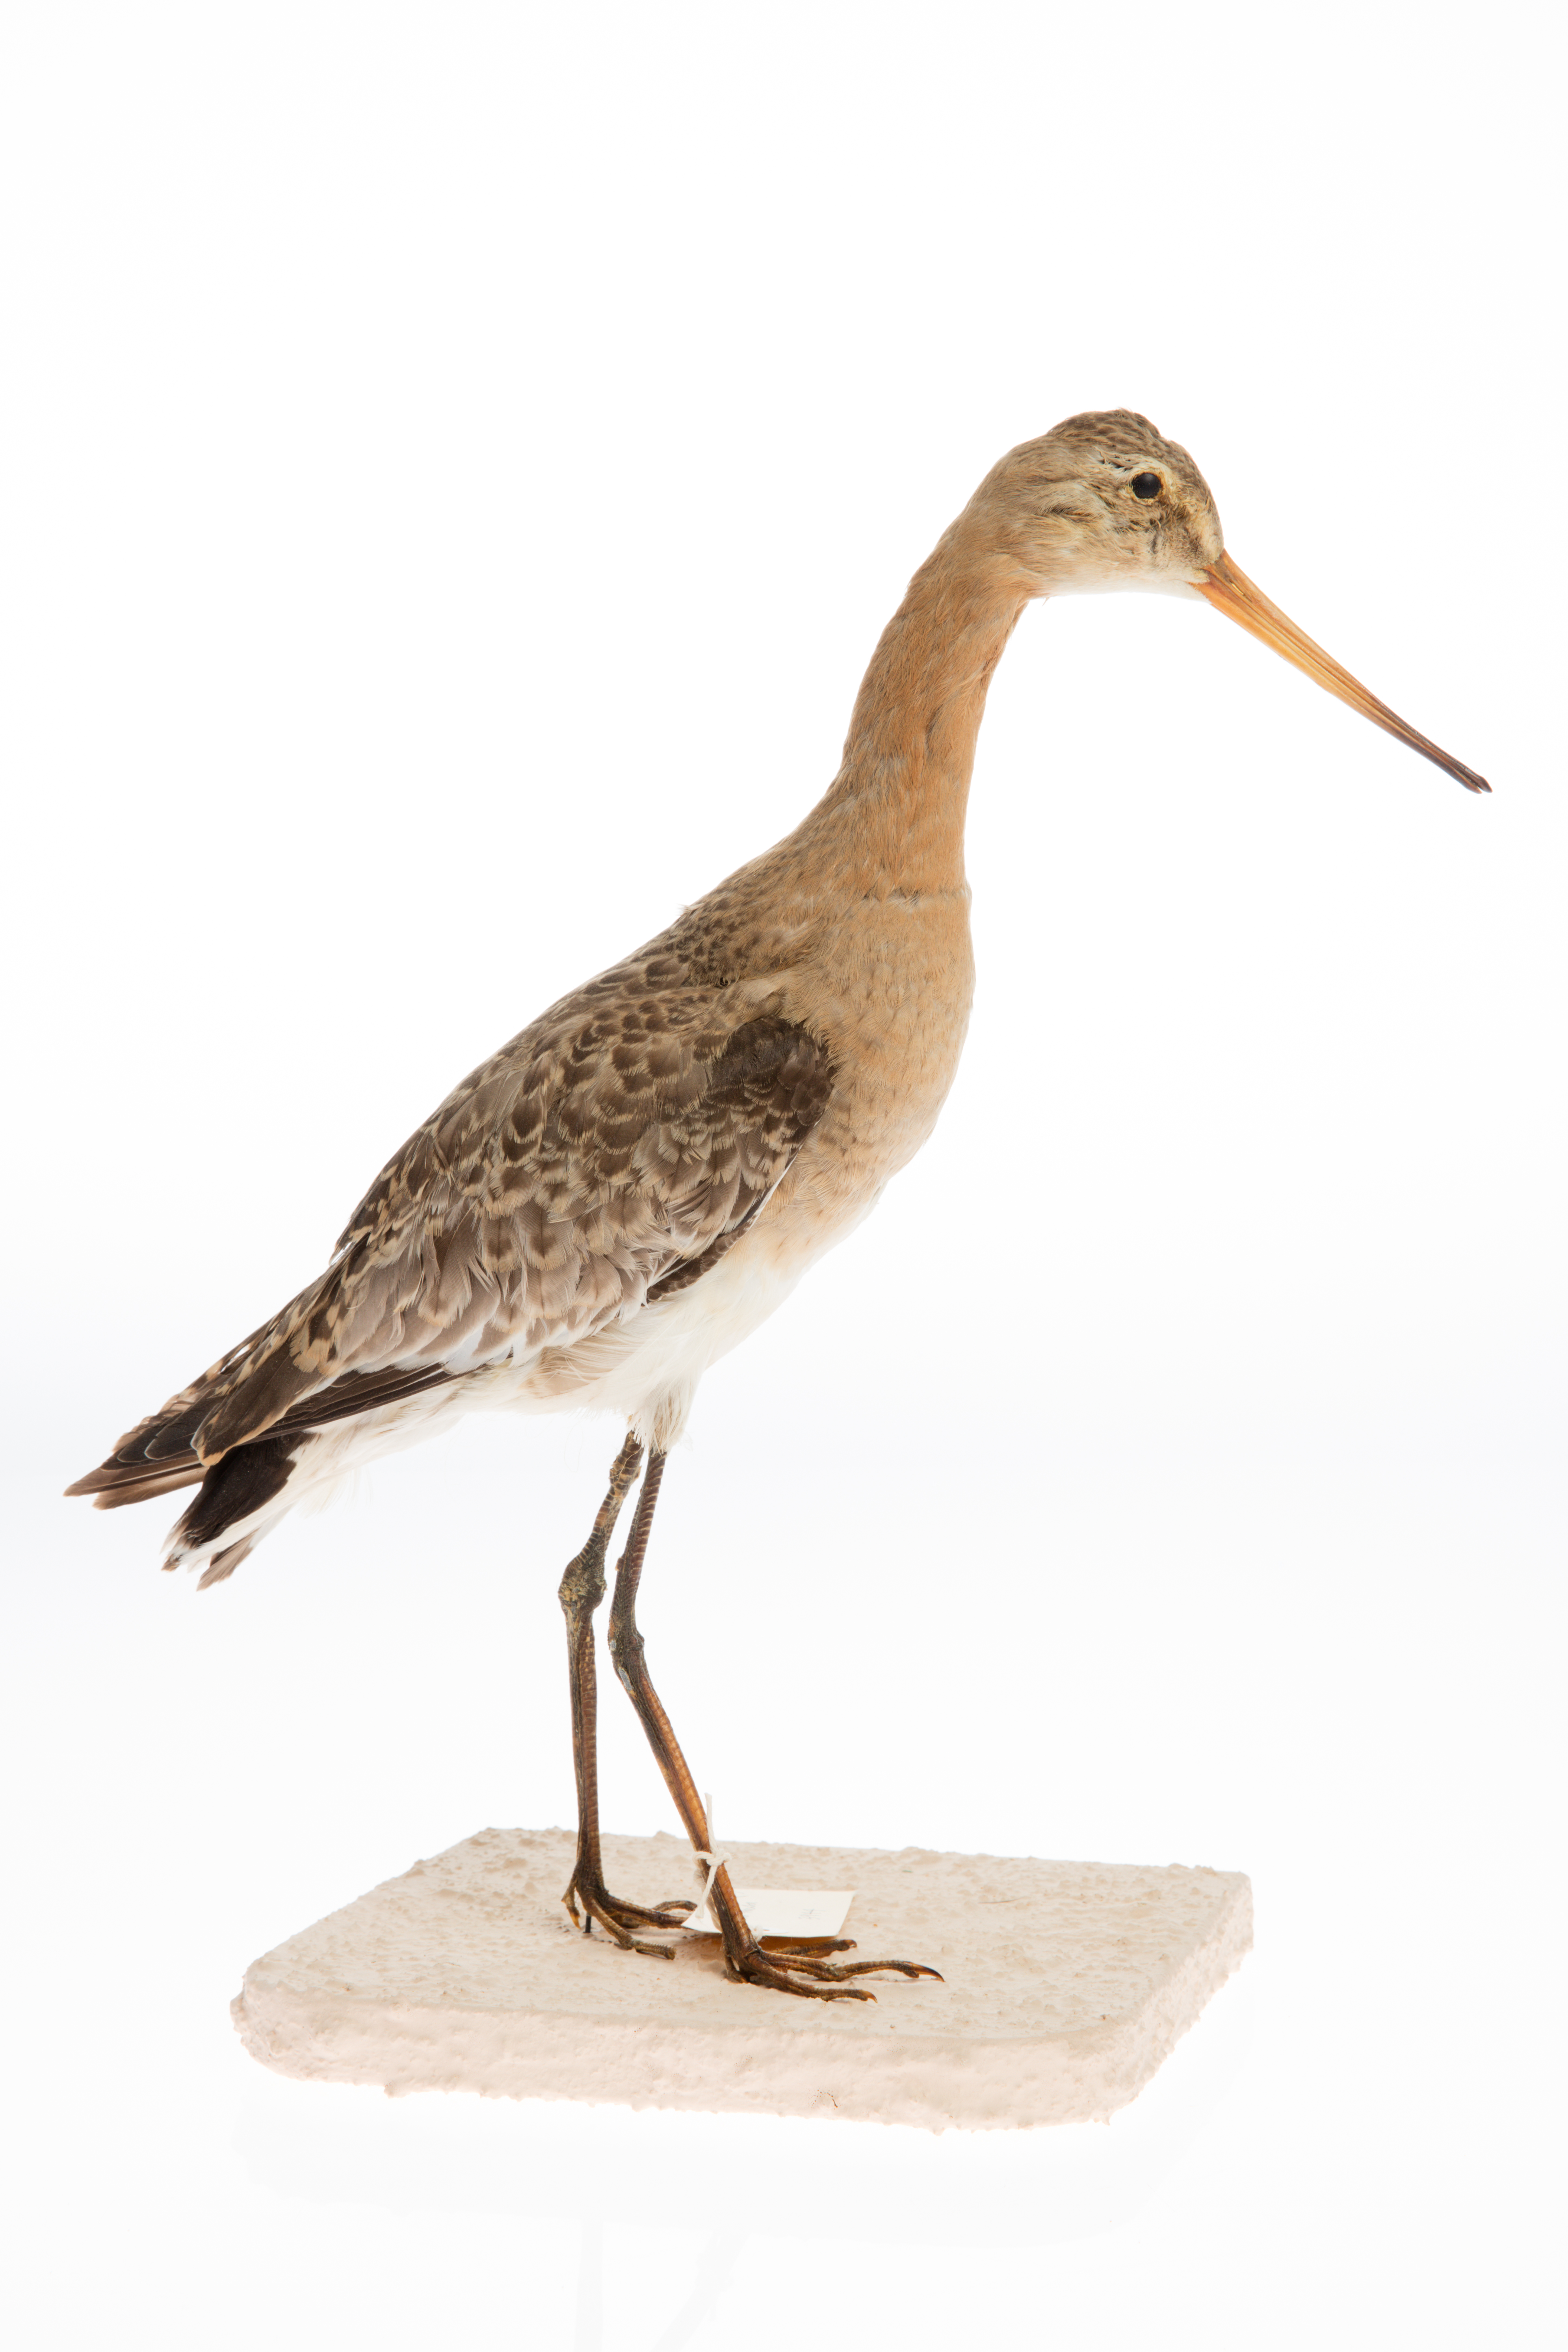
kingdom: Animalia
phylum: Chordata
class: Aves
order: Charadriiformes
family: Scolopacidae
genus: Limosa
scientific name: Limosa limosa
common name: Black-tailed godwit
